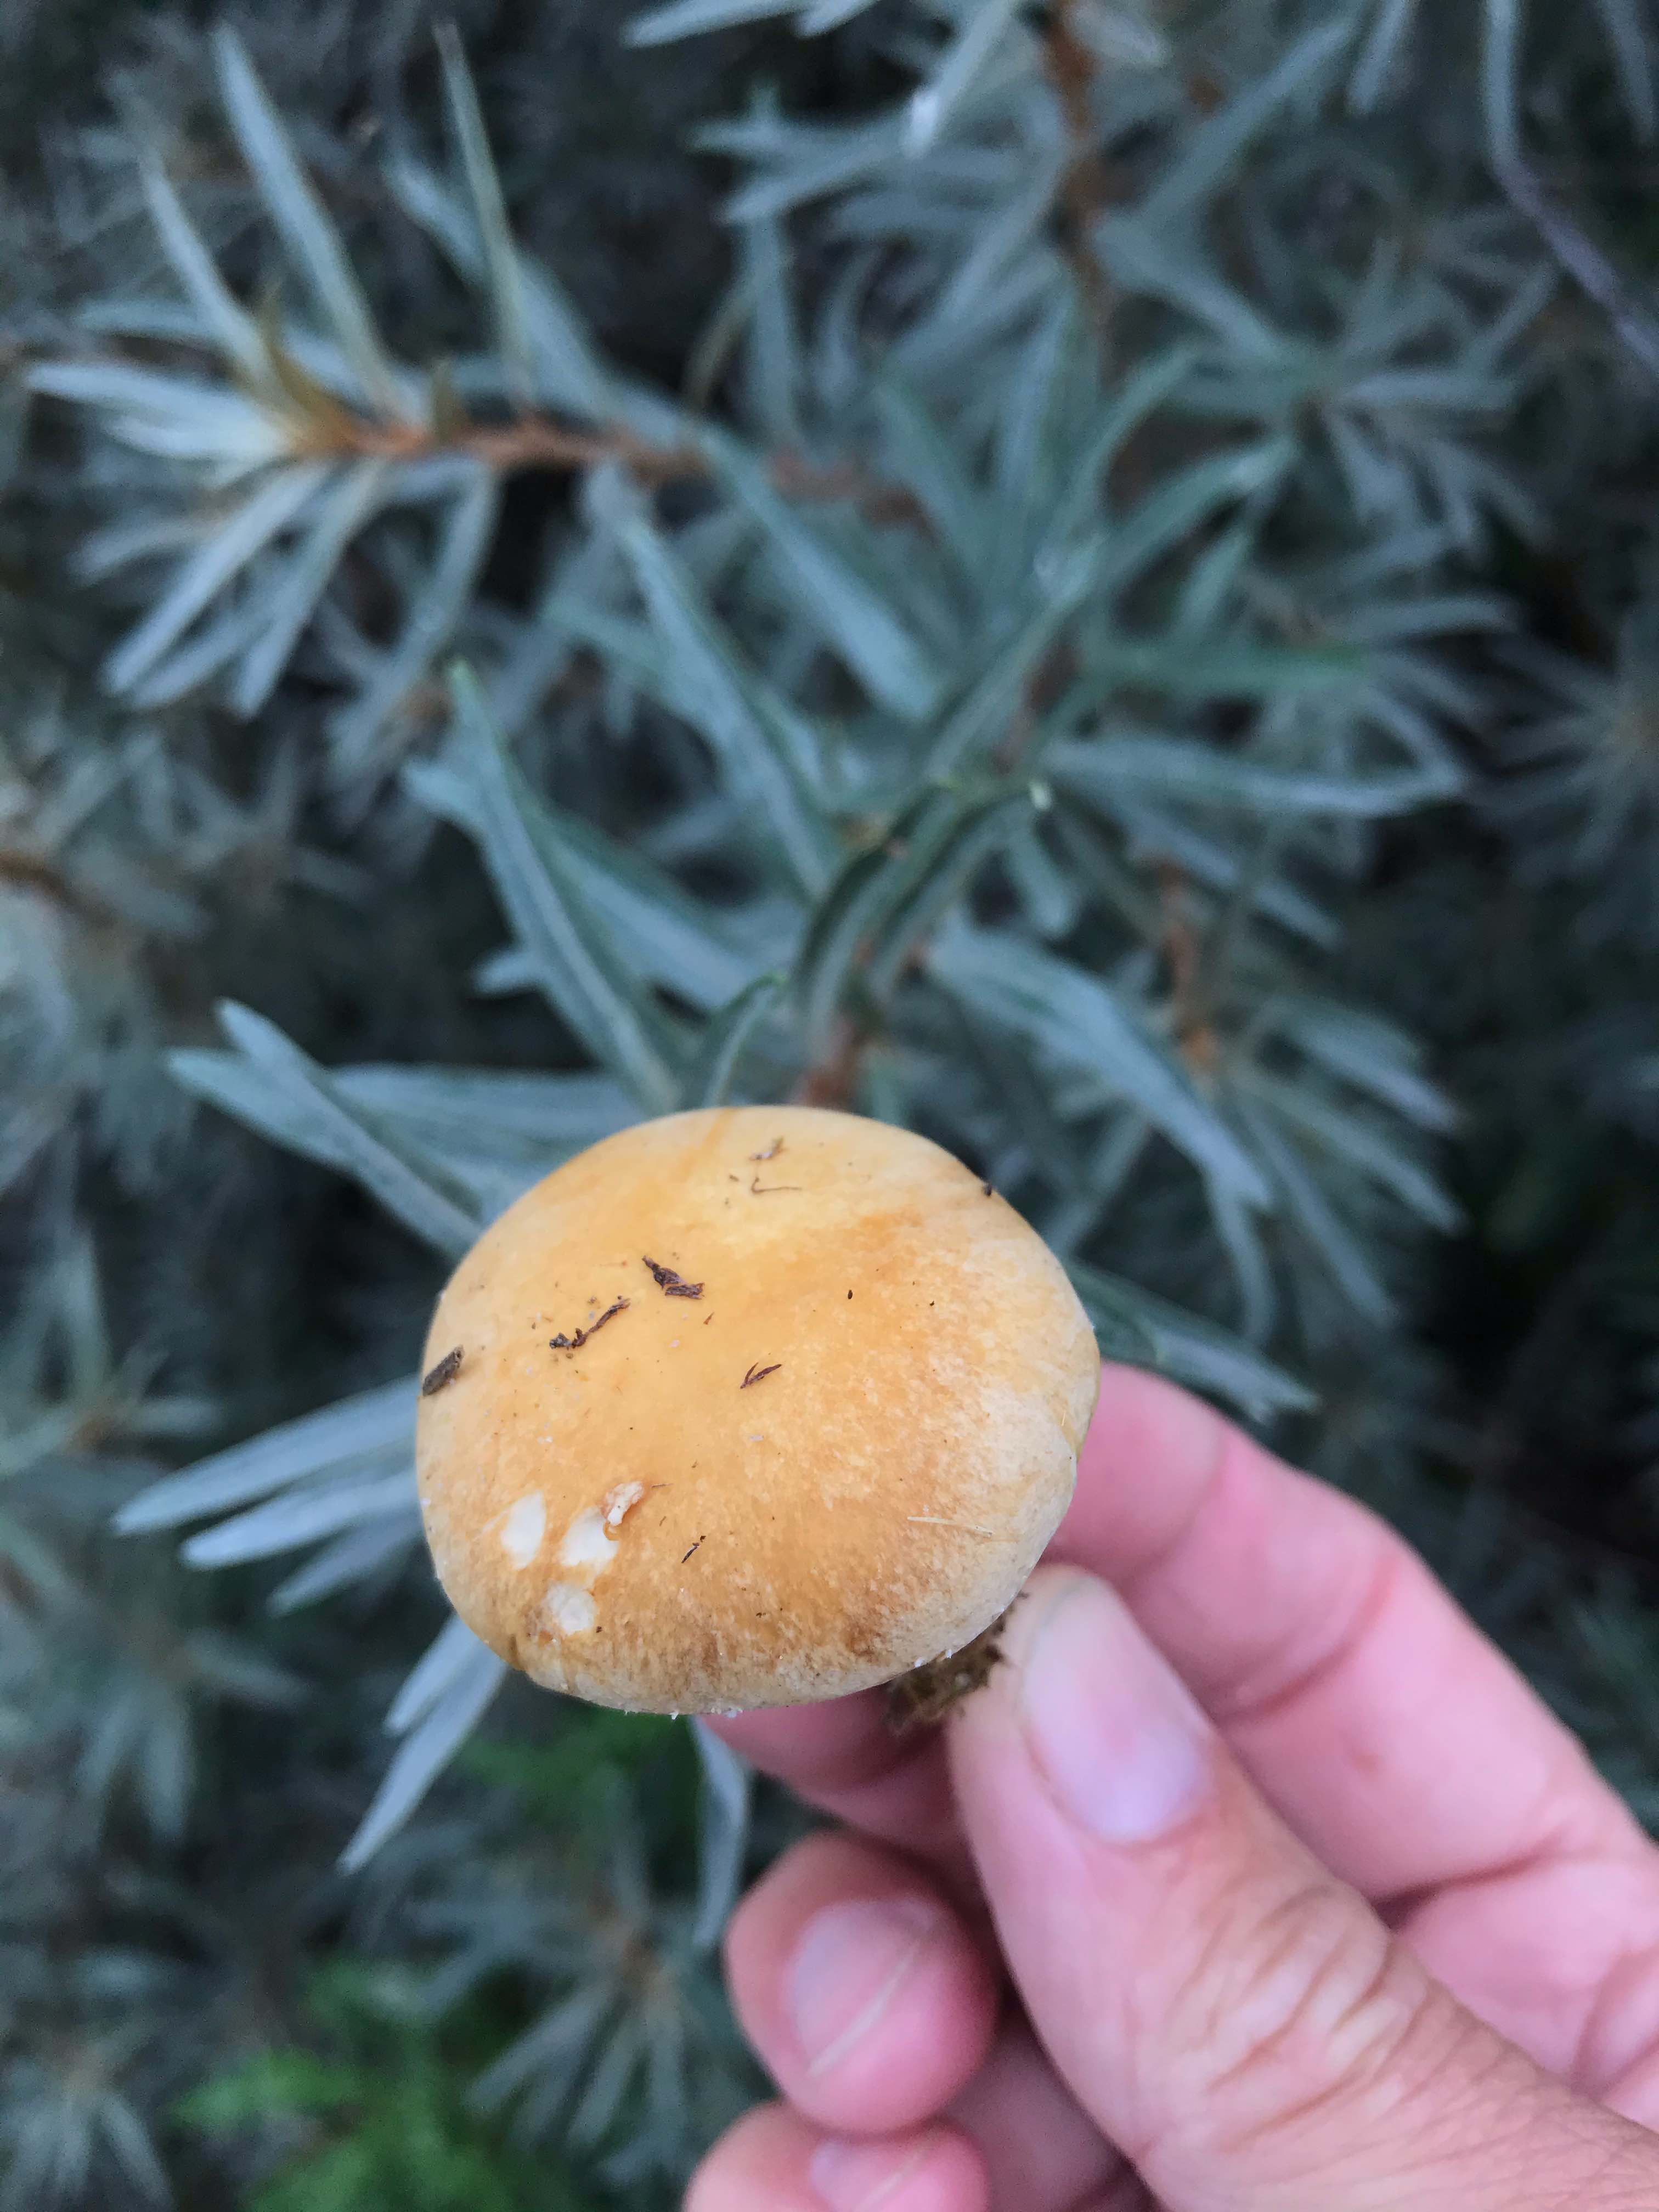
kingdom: Fungi
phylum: Basidiomycota
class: Agaricomycetes
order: Agaricales
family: Hymenogastraceae
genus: Psilocybe
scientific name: Psilocybe coronilla
